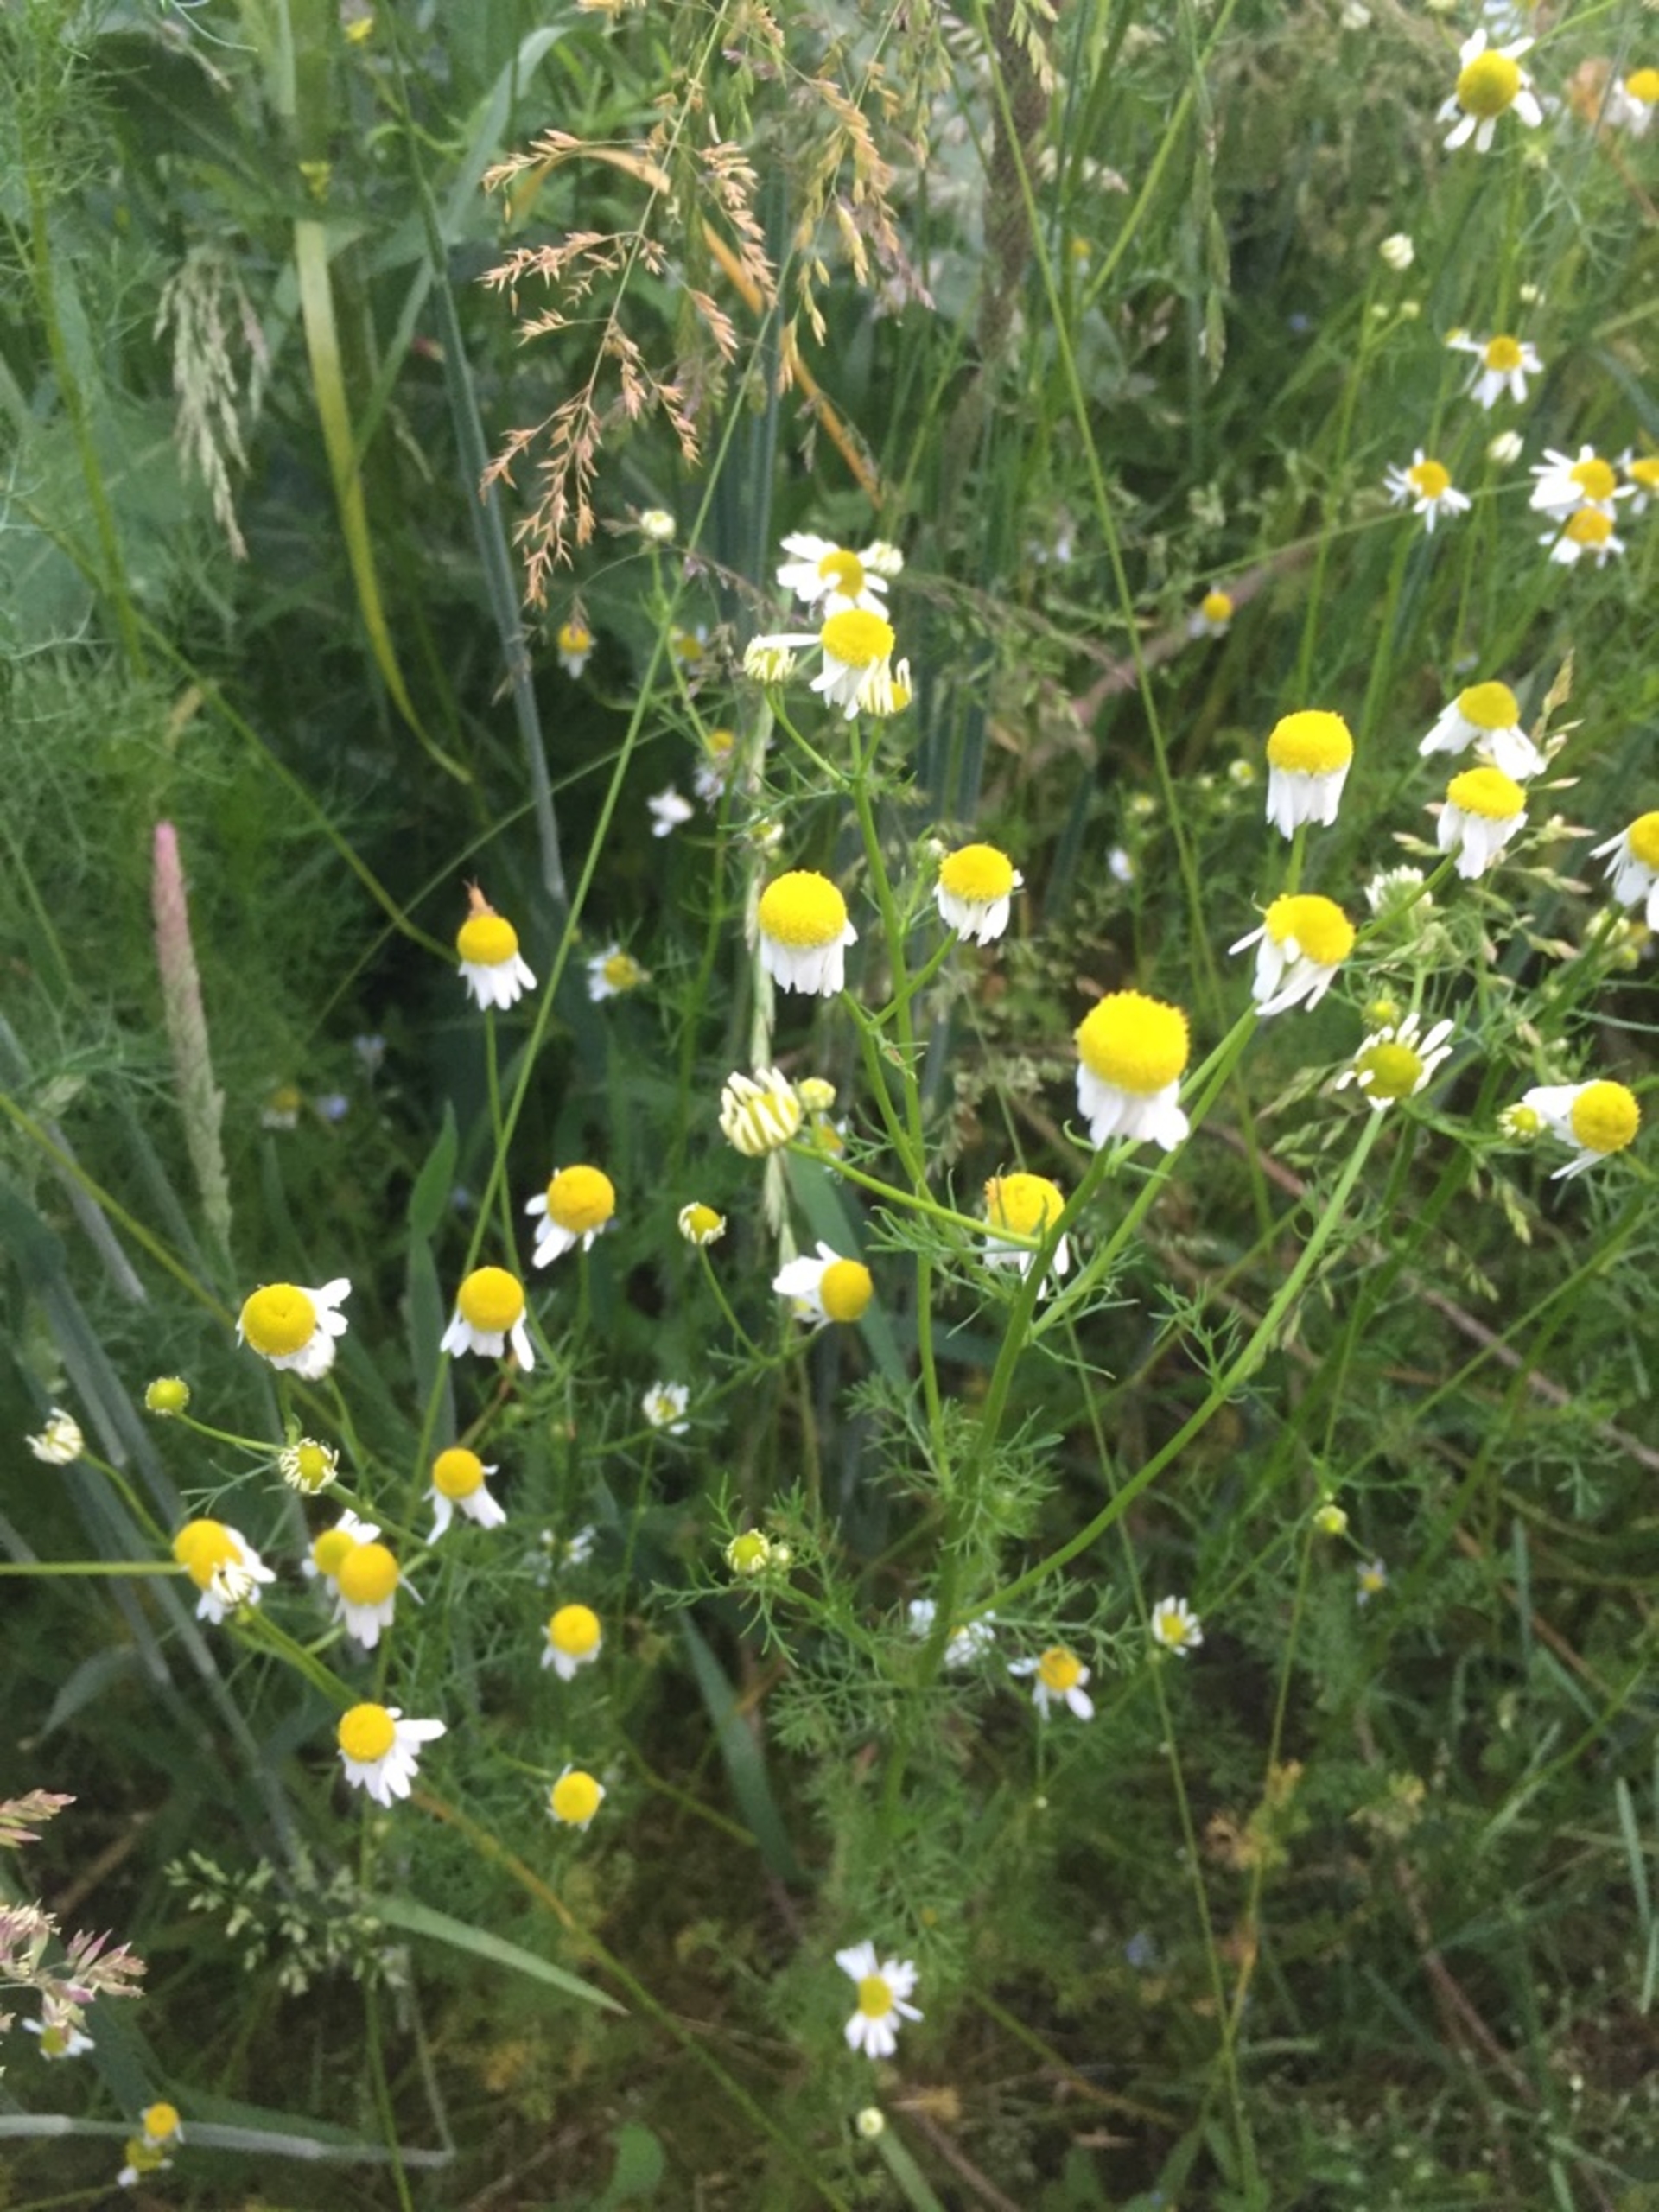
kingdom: Plantae
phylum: Tracheophyta
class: Magnoliopsida
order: Asterales
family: Asteraceae
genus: Matricaria
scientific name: Matricaria chamomilla
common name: Vellugtende kamille
